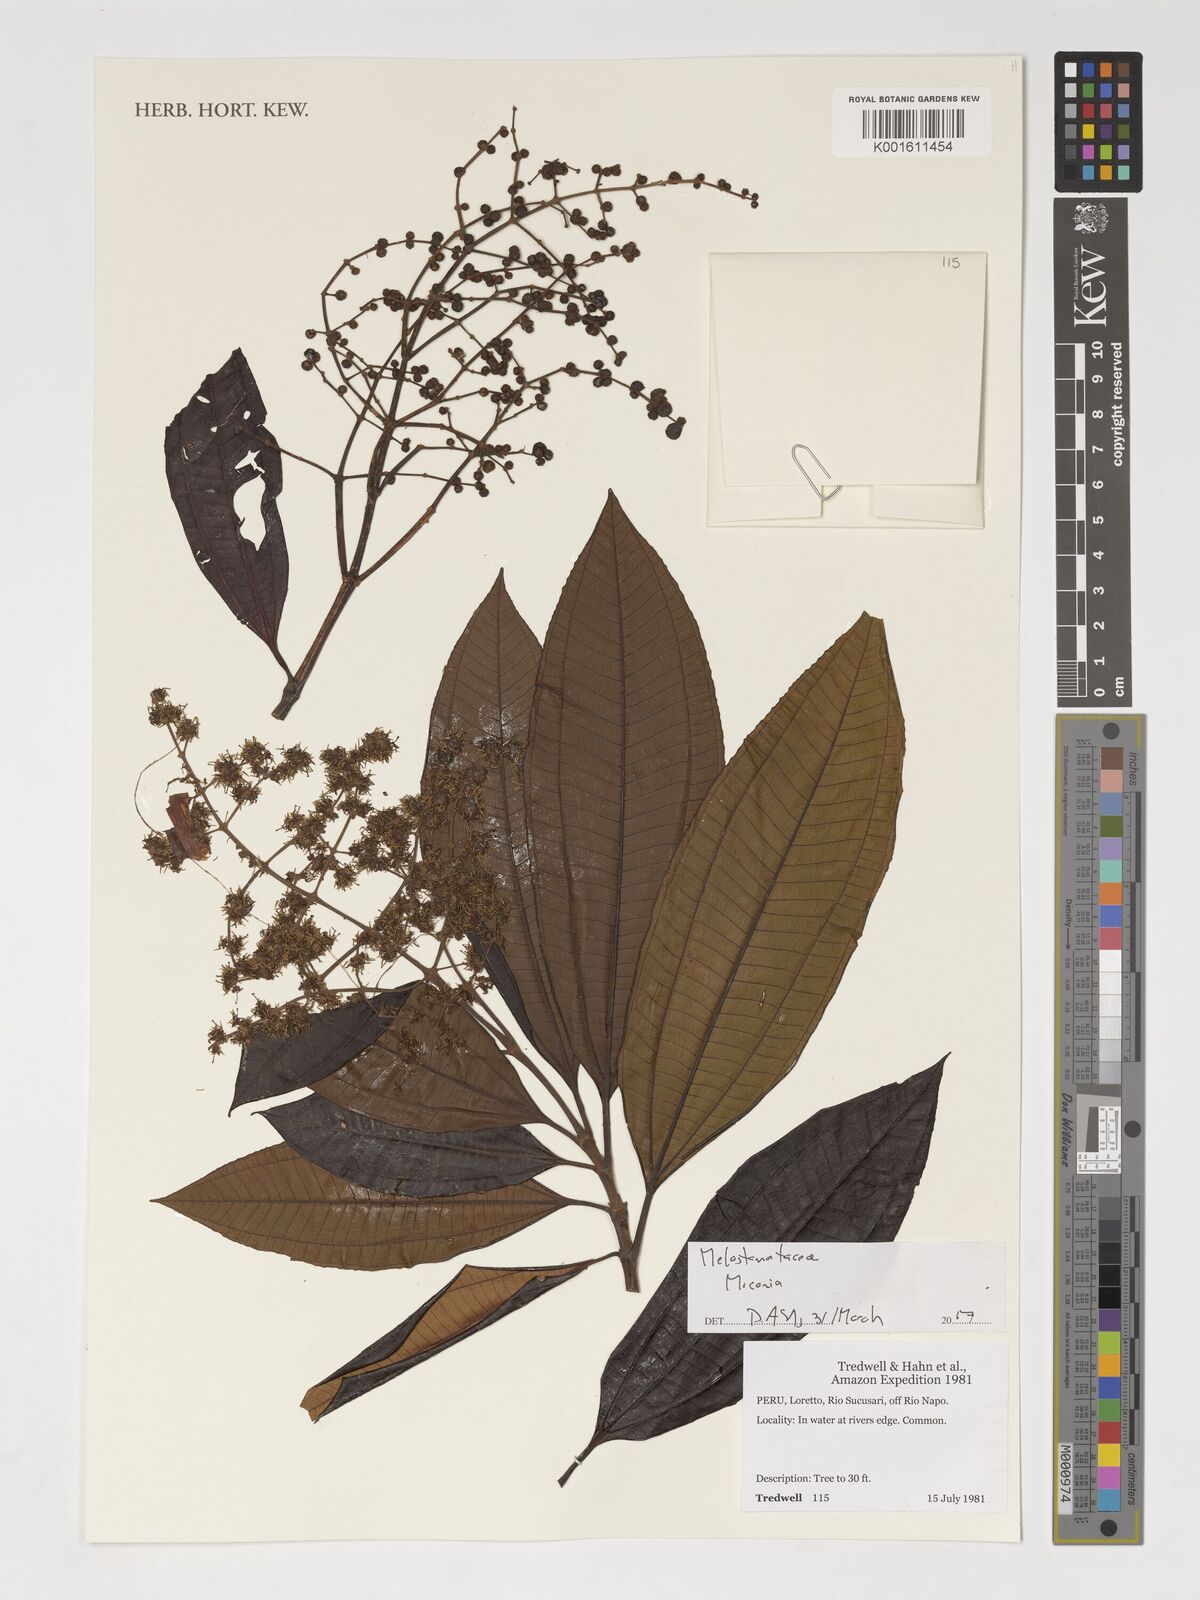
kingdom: Plantae
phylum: Tracheophyta
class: Magnoliopsida
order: Myrtales
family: Melastomataceae
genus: Miconia
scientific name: Miconia
